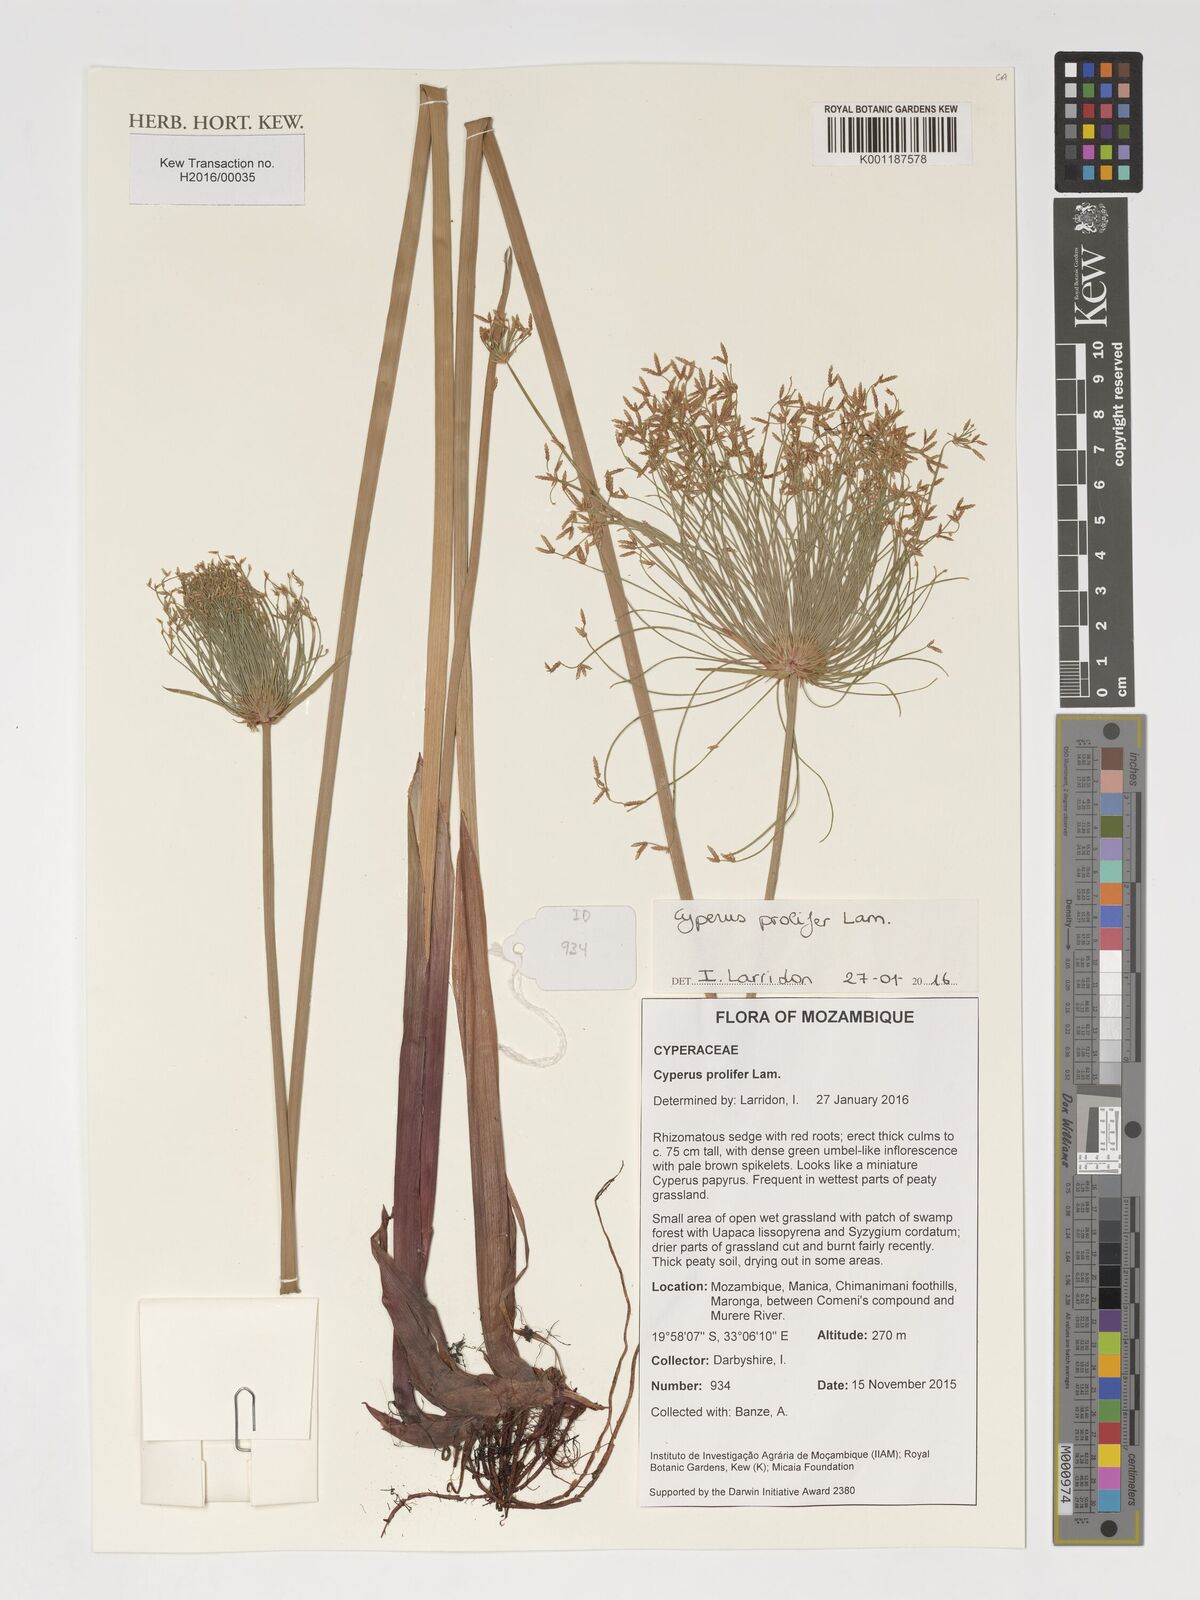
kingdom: Plantae
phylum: Tracheophyta
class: Liliopsida
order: Poales
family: Cyperaceae
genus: Cyperus
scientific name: Cyperus prolifer
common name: Miniature flatsedge
